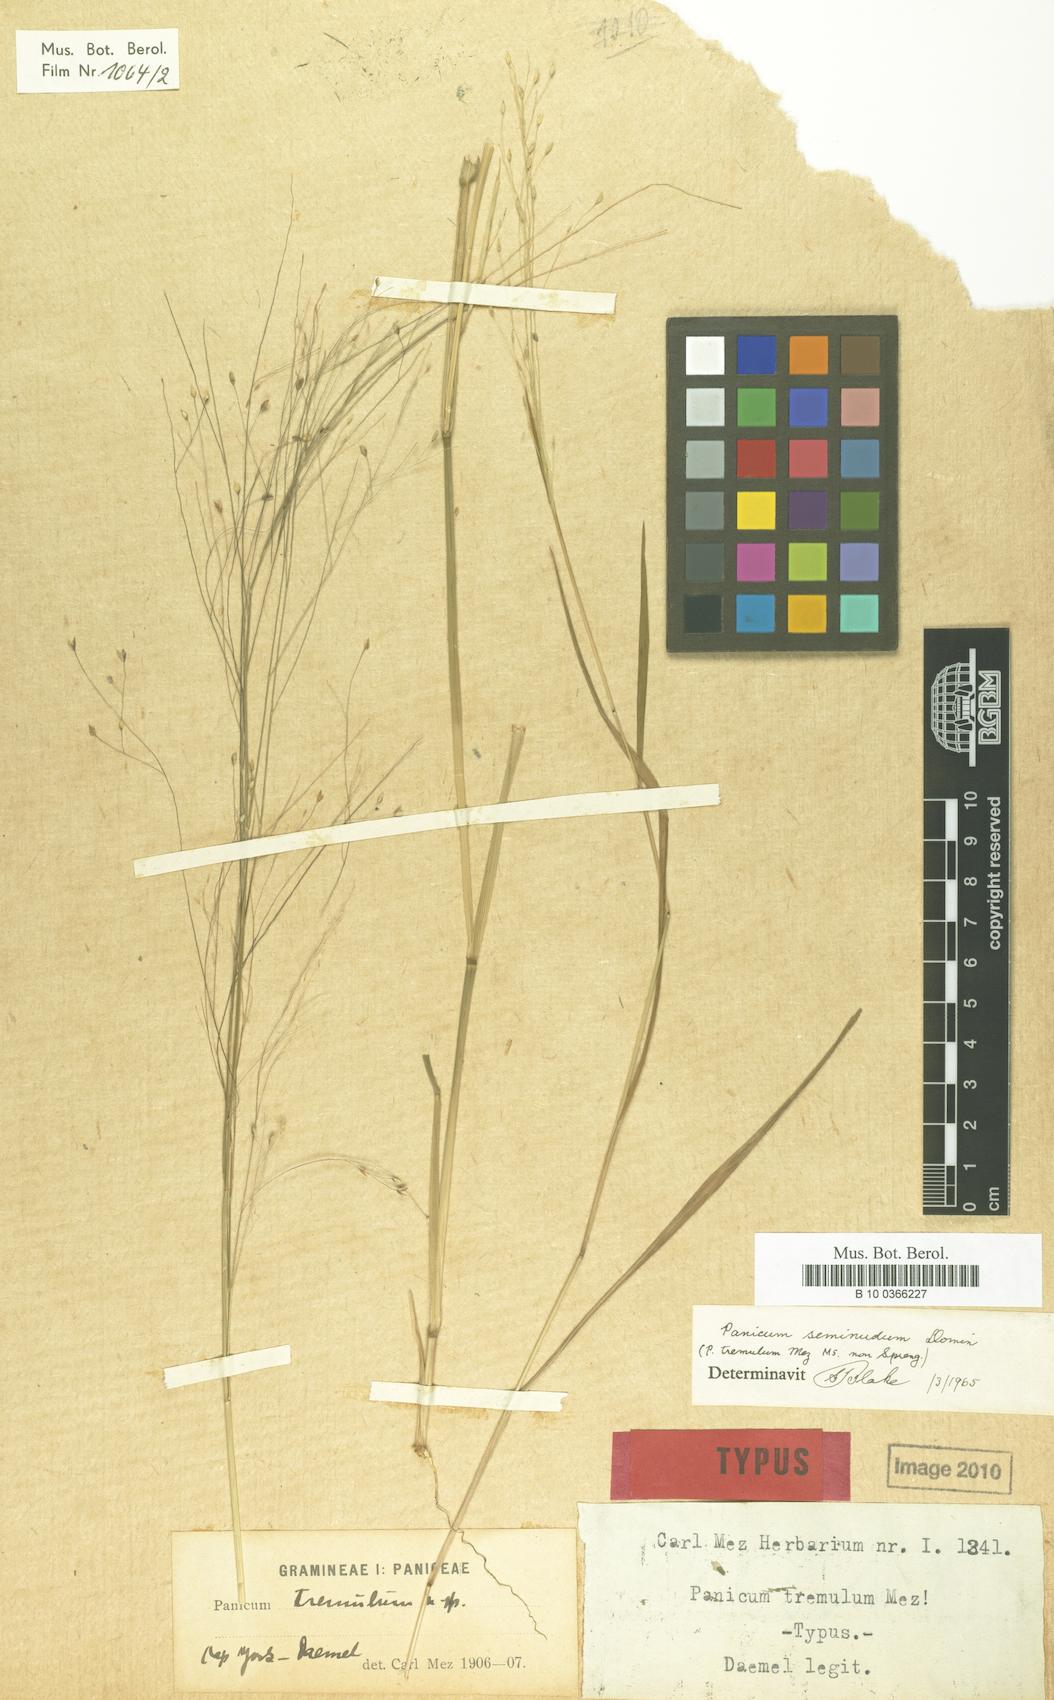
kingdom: Plantae
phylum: Tracheophyta
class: Liliopsida
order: Poales
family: Poaceae
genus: Dichanthelium
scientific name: Dichanthelium viscidellum
